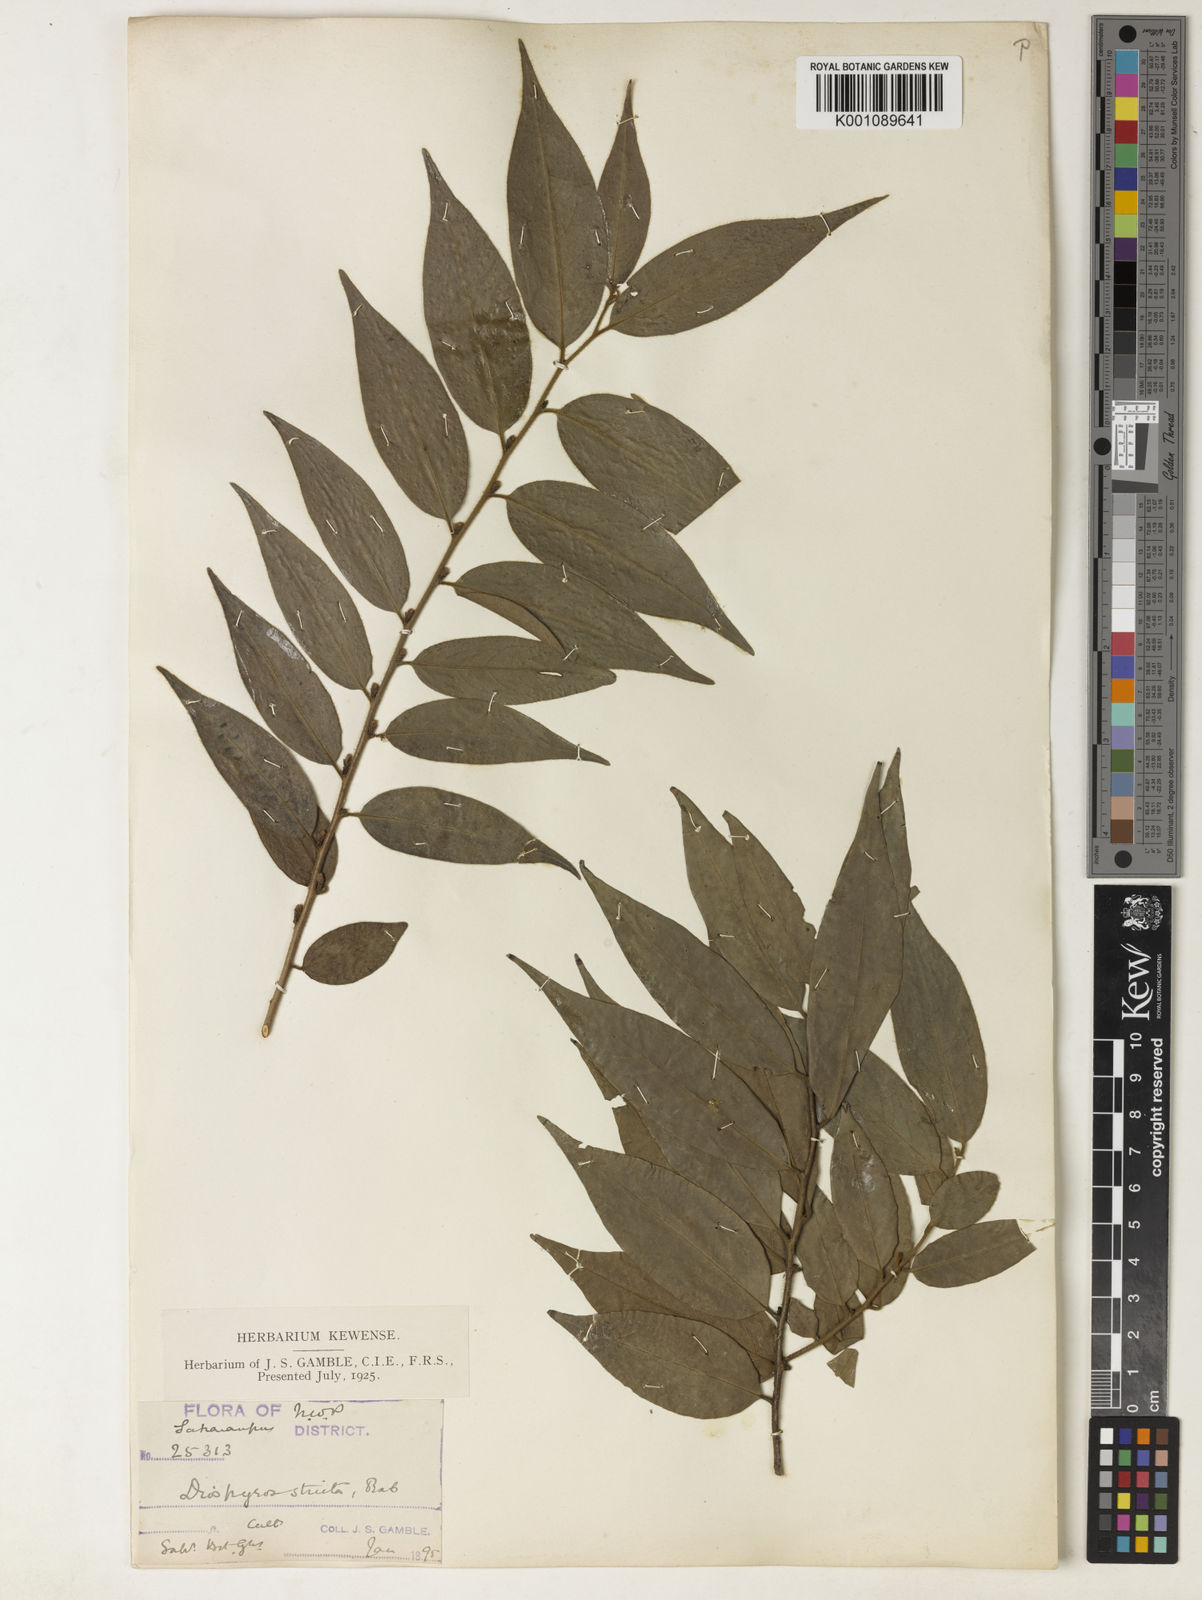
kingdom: Plantae
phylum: Tracheophyta
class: Magnoliopsida
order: Ericales
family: Ebenaceae
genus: Diospyros
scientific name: Diospyros stricta
